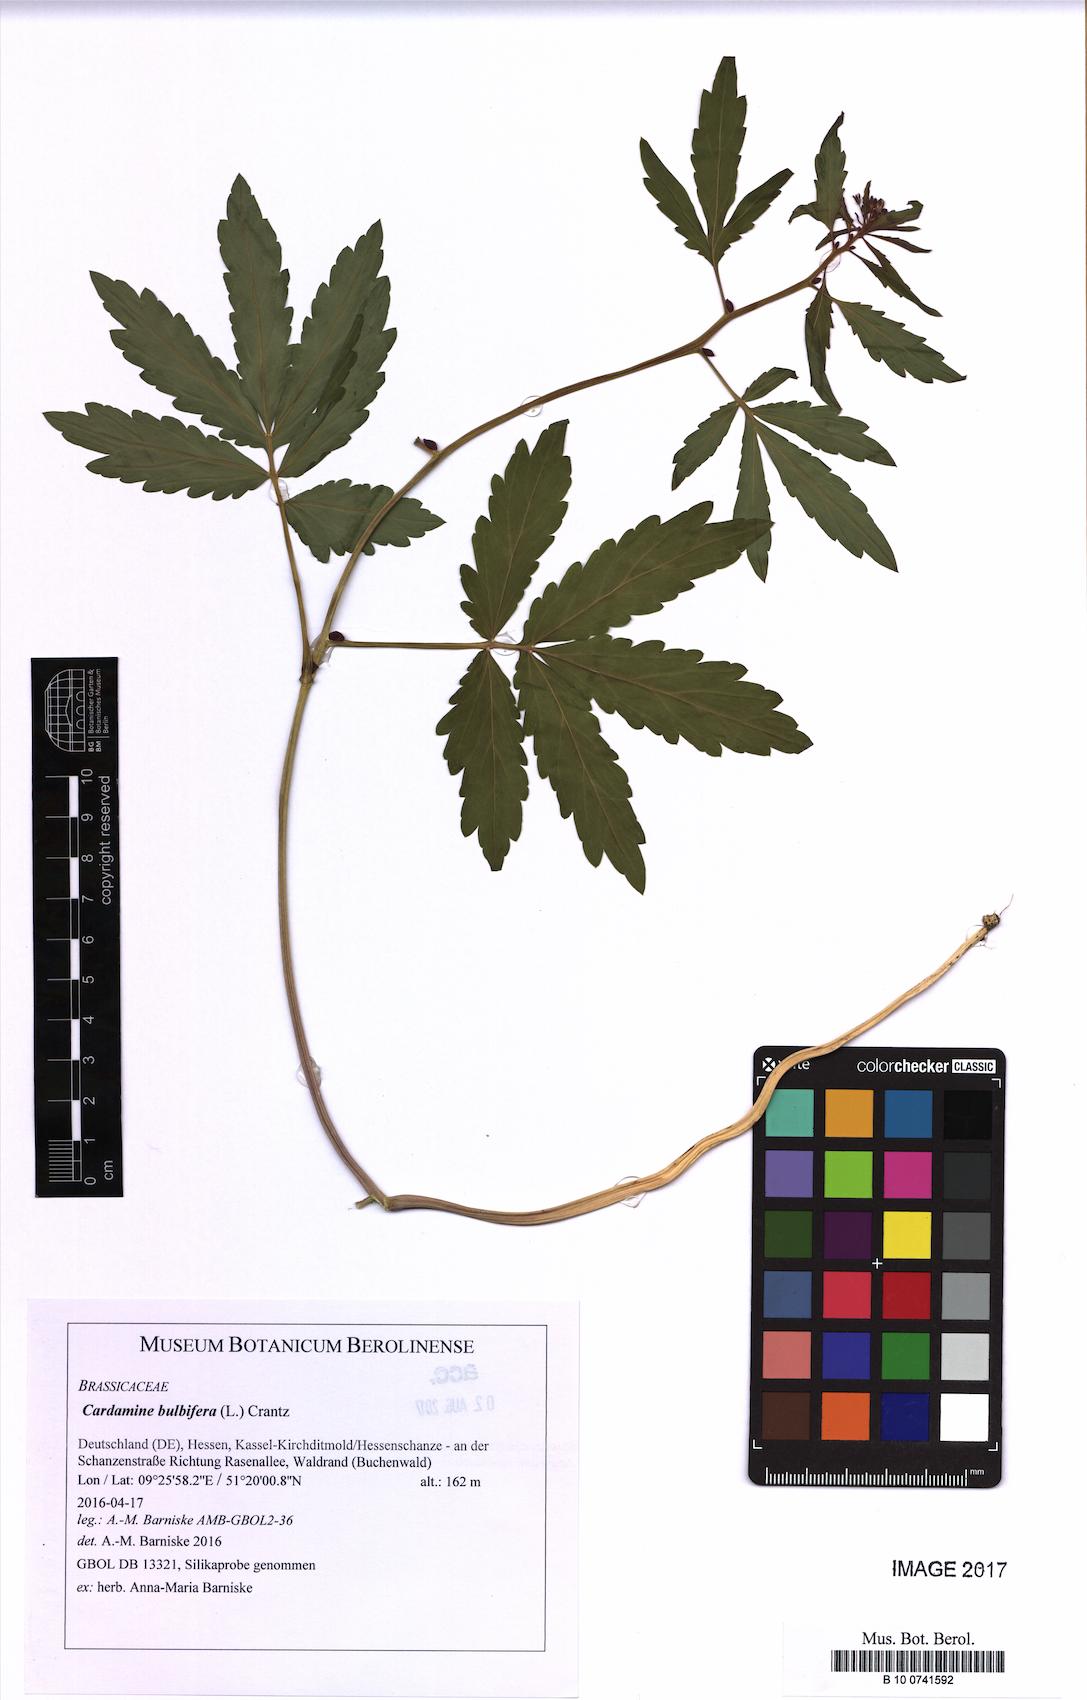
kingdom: Plantae
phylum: Tracheophyta
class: Magnoliopsida
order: Brassicales
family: Brassicaceae
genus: Cardamine
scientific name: Cardamine bulbifera
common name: Coralroot bittercress
